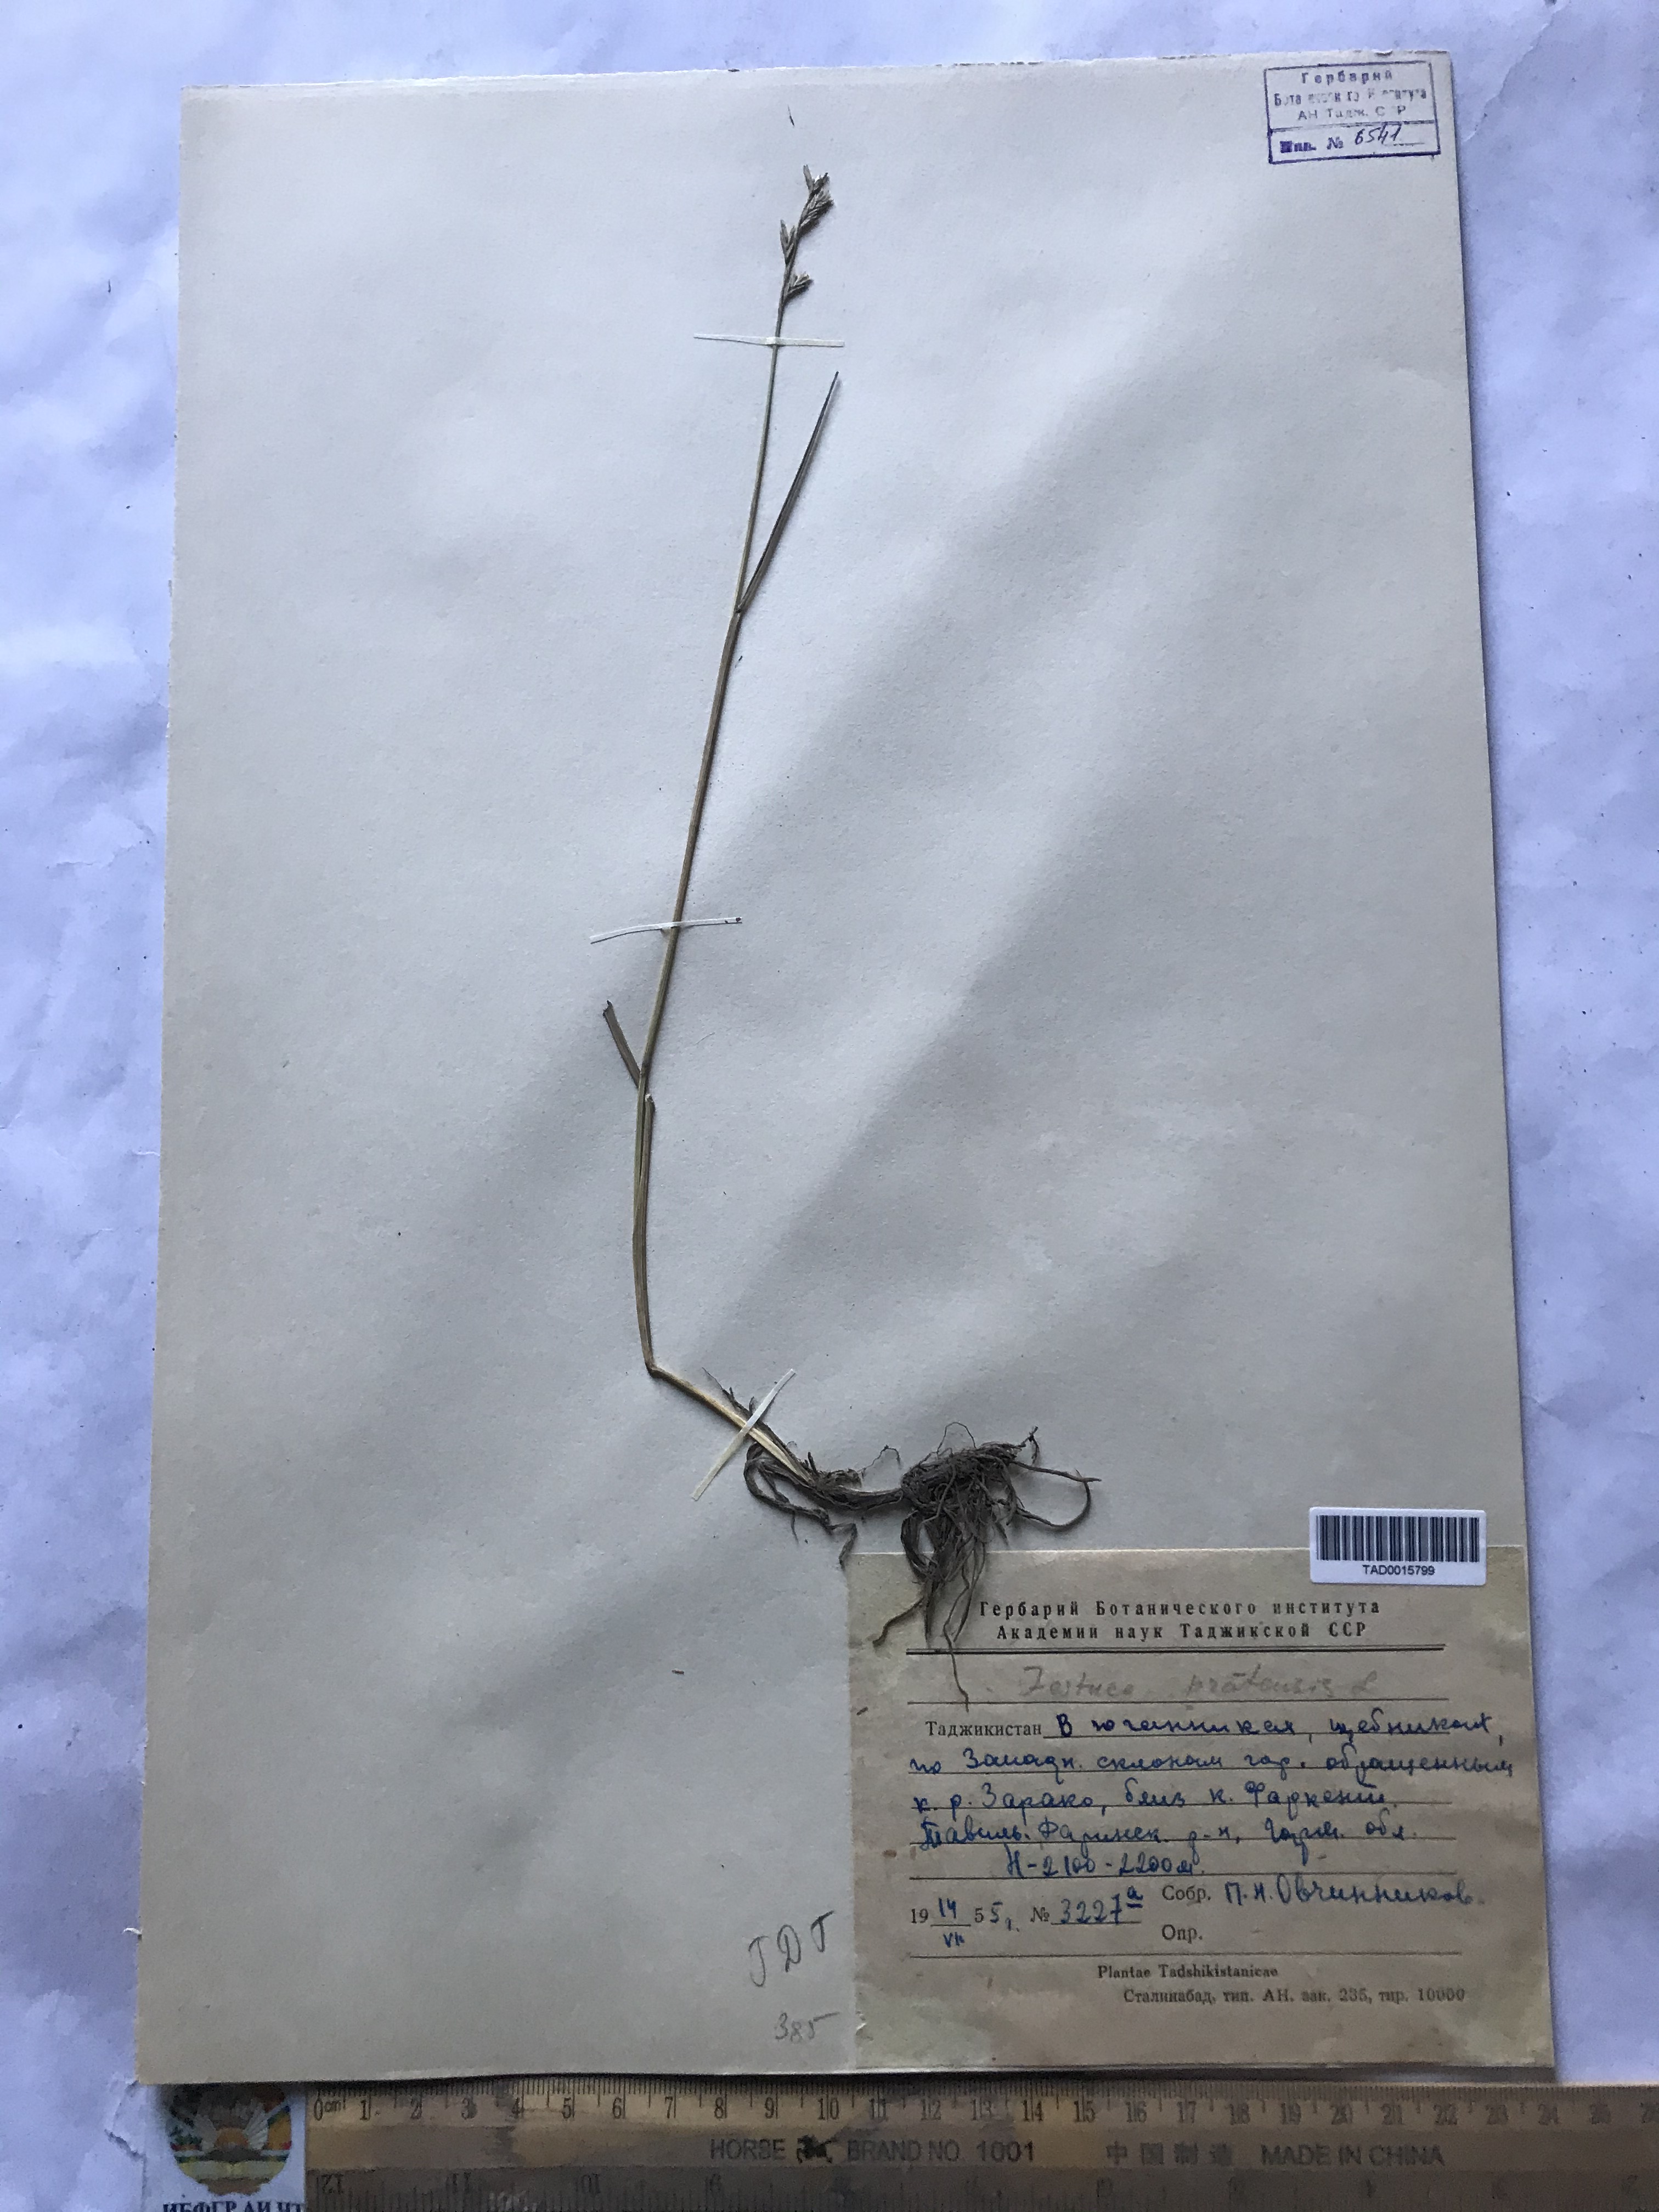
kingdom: Plantae
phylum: Tracheophyta
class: Liliopsida
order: Poales
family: Poaceae
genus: Lolium
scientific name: Lolium pratense
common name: Dover grass
